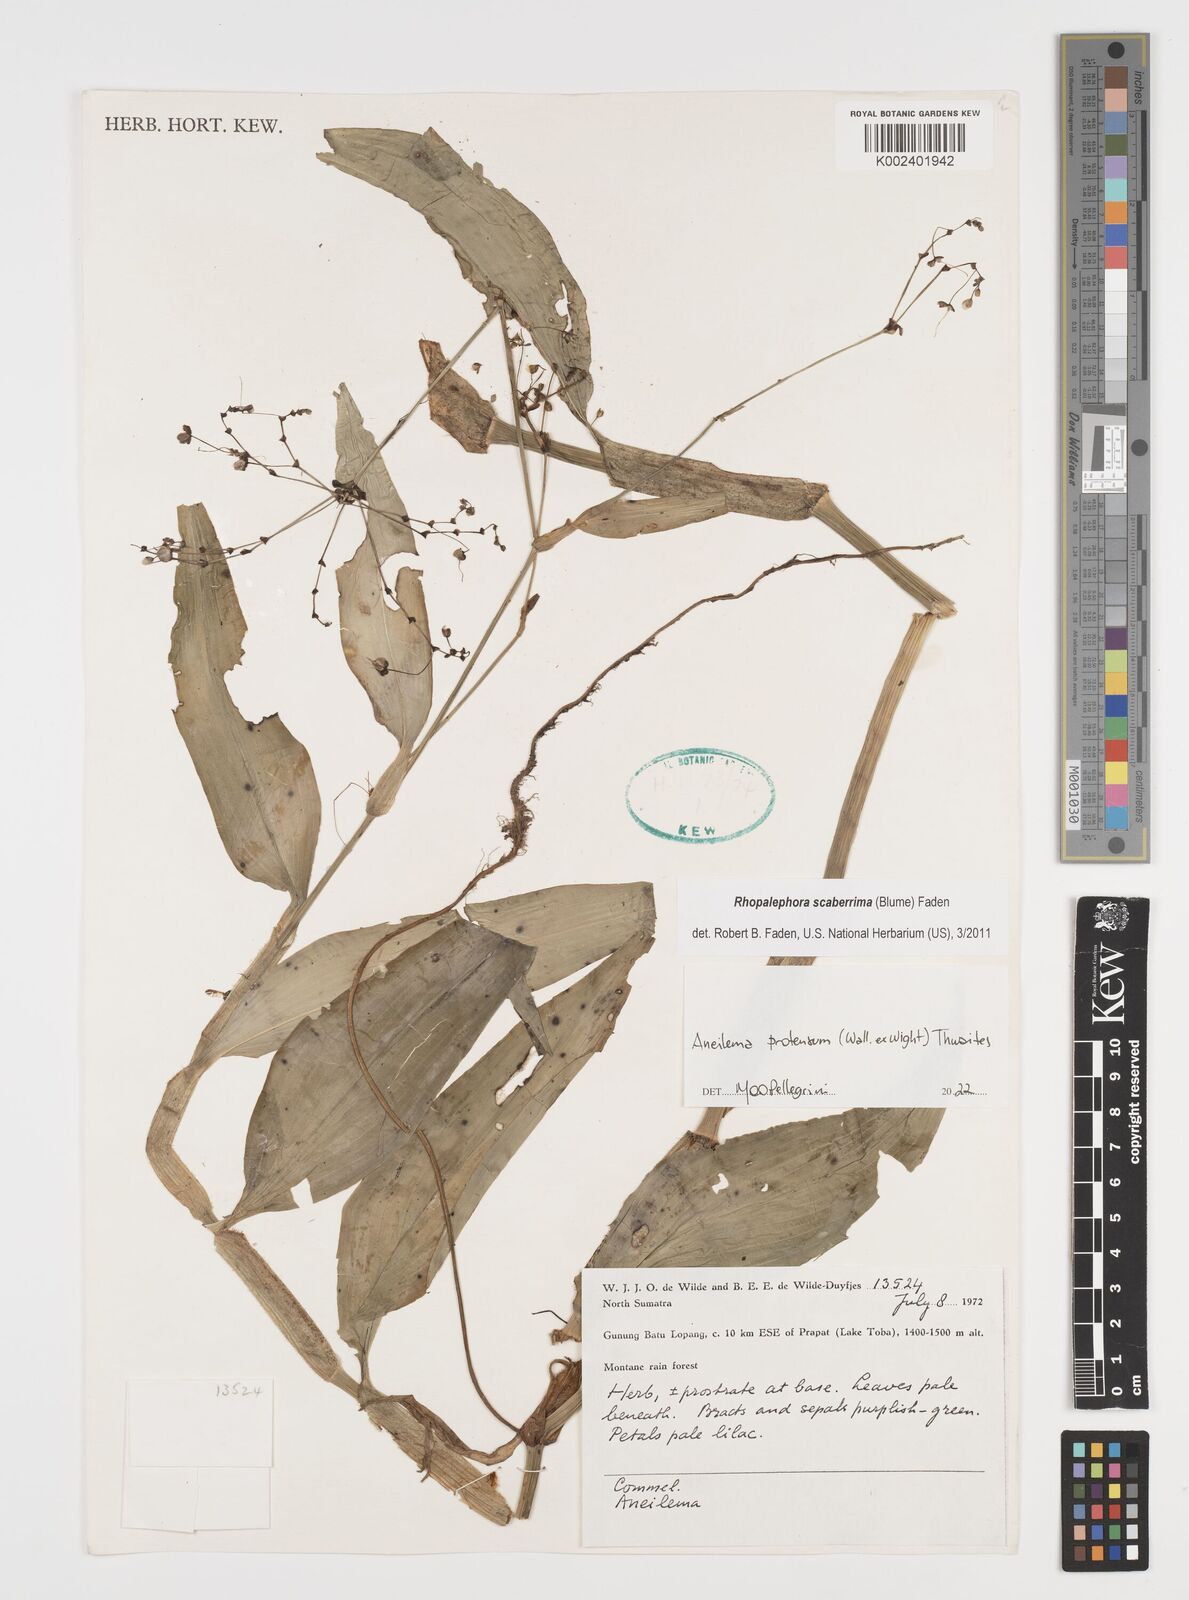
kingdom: Plantae
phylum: Tracheophyta
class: Liliopsida
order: Commelinales
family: Commelinaceae
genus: Rhopalephora
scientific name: Rhopalephora
